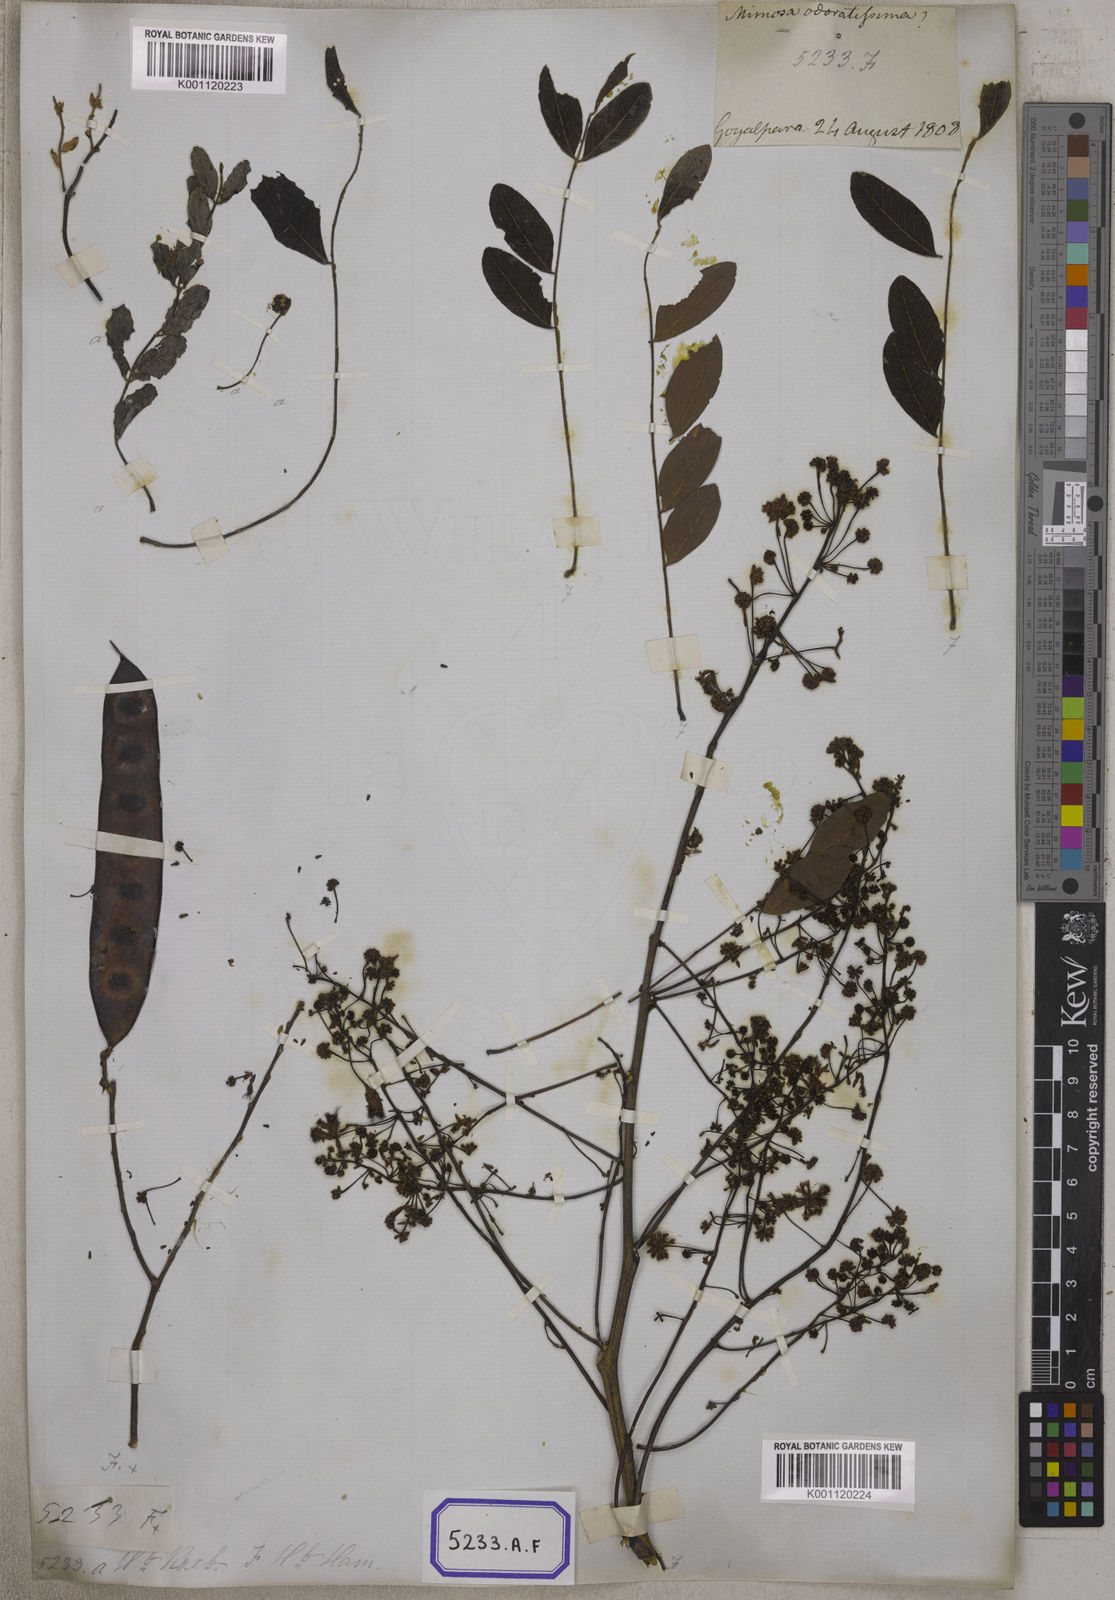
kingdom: Plantae
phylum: Tracheophyta
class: Magnoliopsida
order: Fabales
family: Fabaceae
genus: Acacia
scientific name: Acacia
